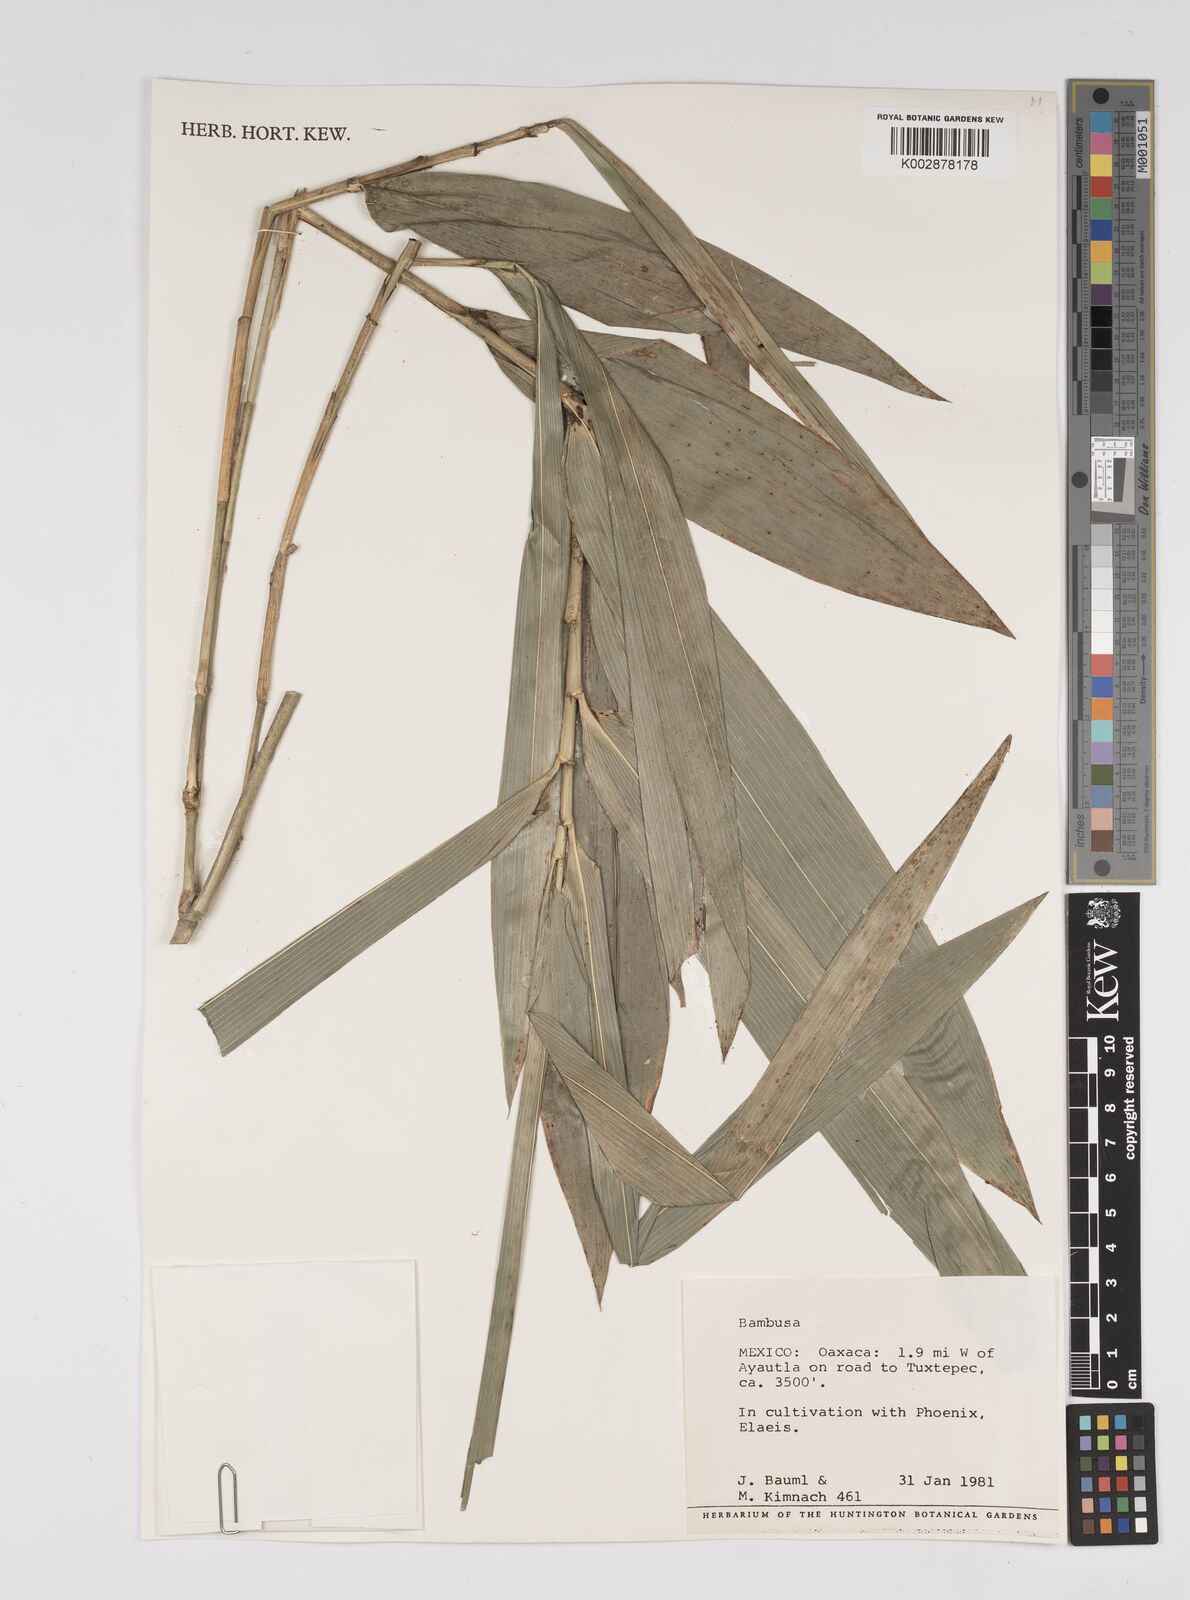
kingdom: Plantae
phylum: Tracheophyta
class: Liliopsida
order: Poales
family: Poaceae
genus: Bambusa
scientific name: Bambusa
